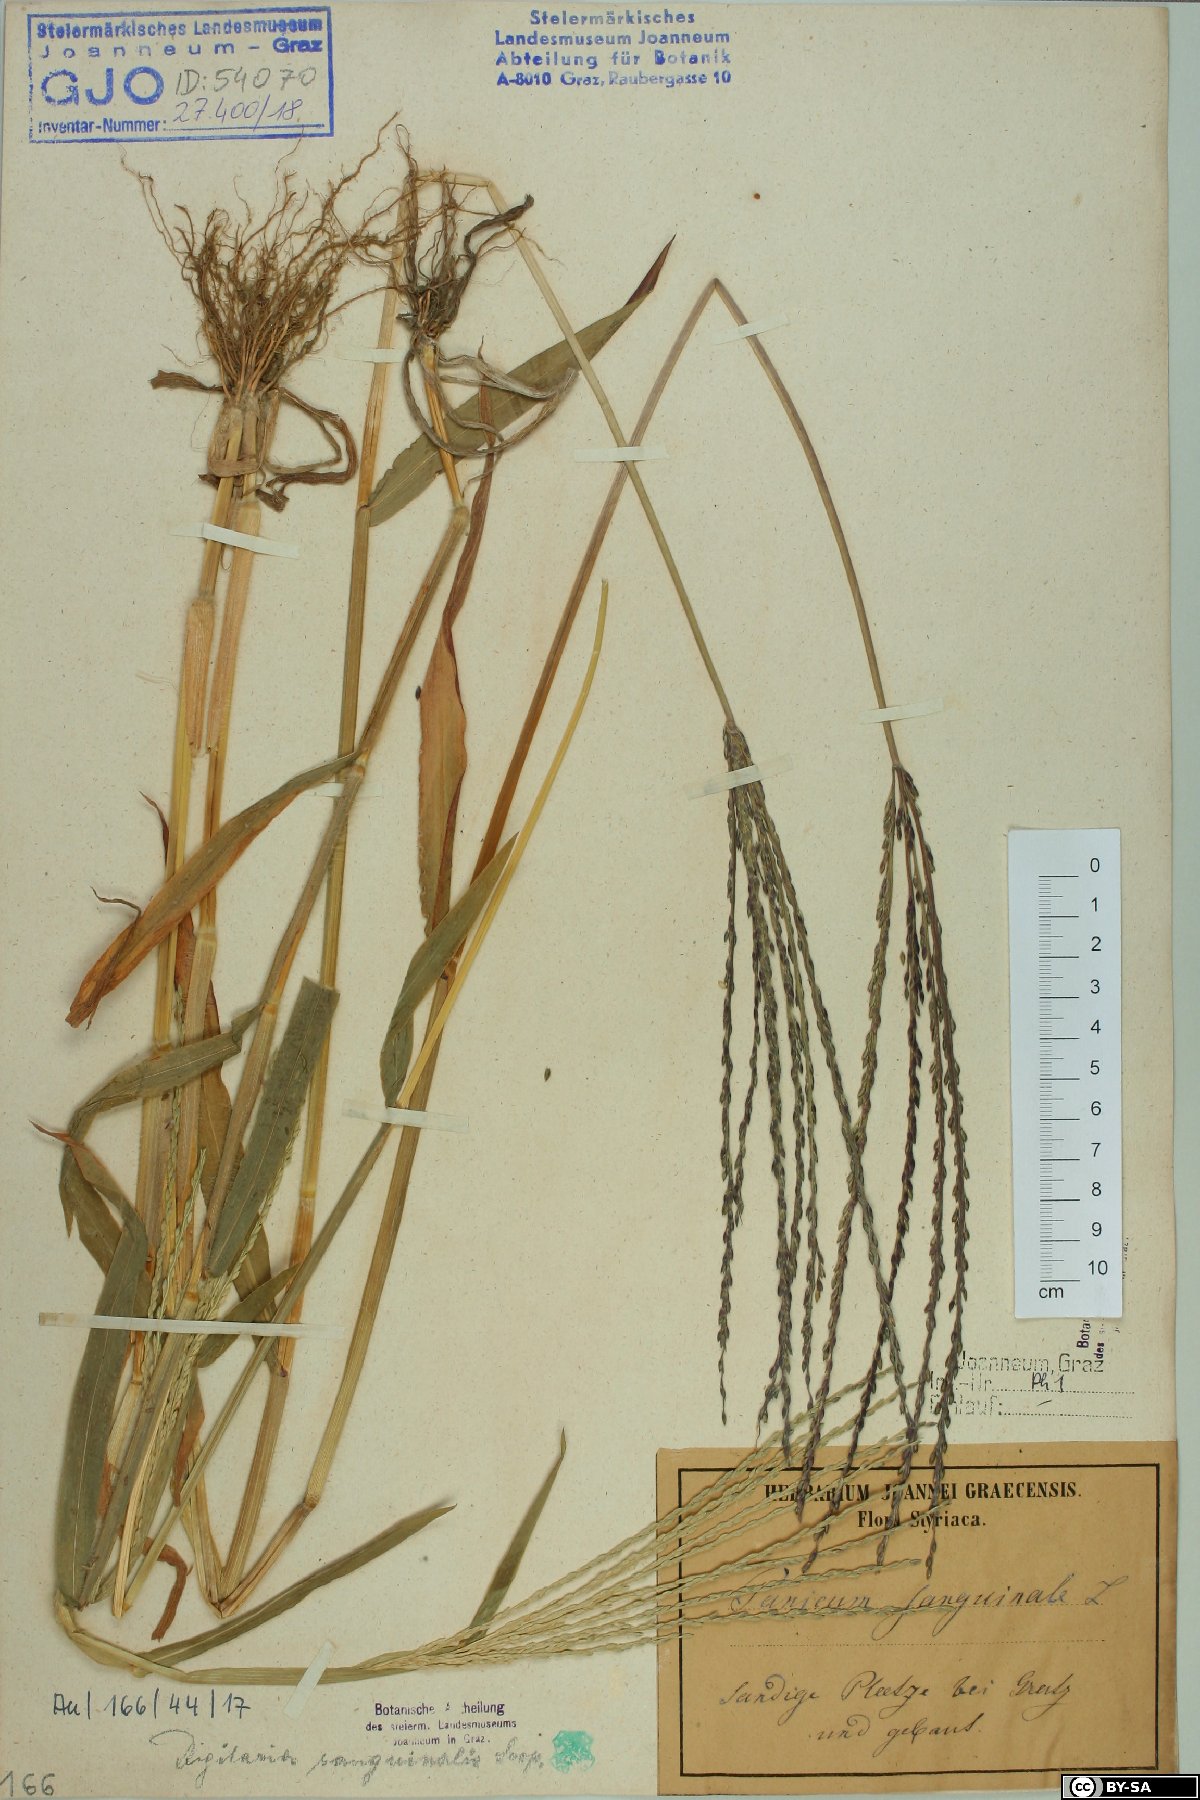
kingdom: Plantae
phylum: Tracheophyta
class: Liliopsida
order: Poales
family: Poaceae
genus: Digitaria
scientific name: Digitaria sanguinalis
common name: Hairy crabgrass
